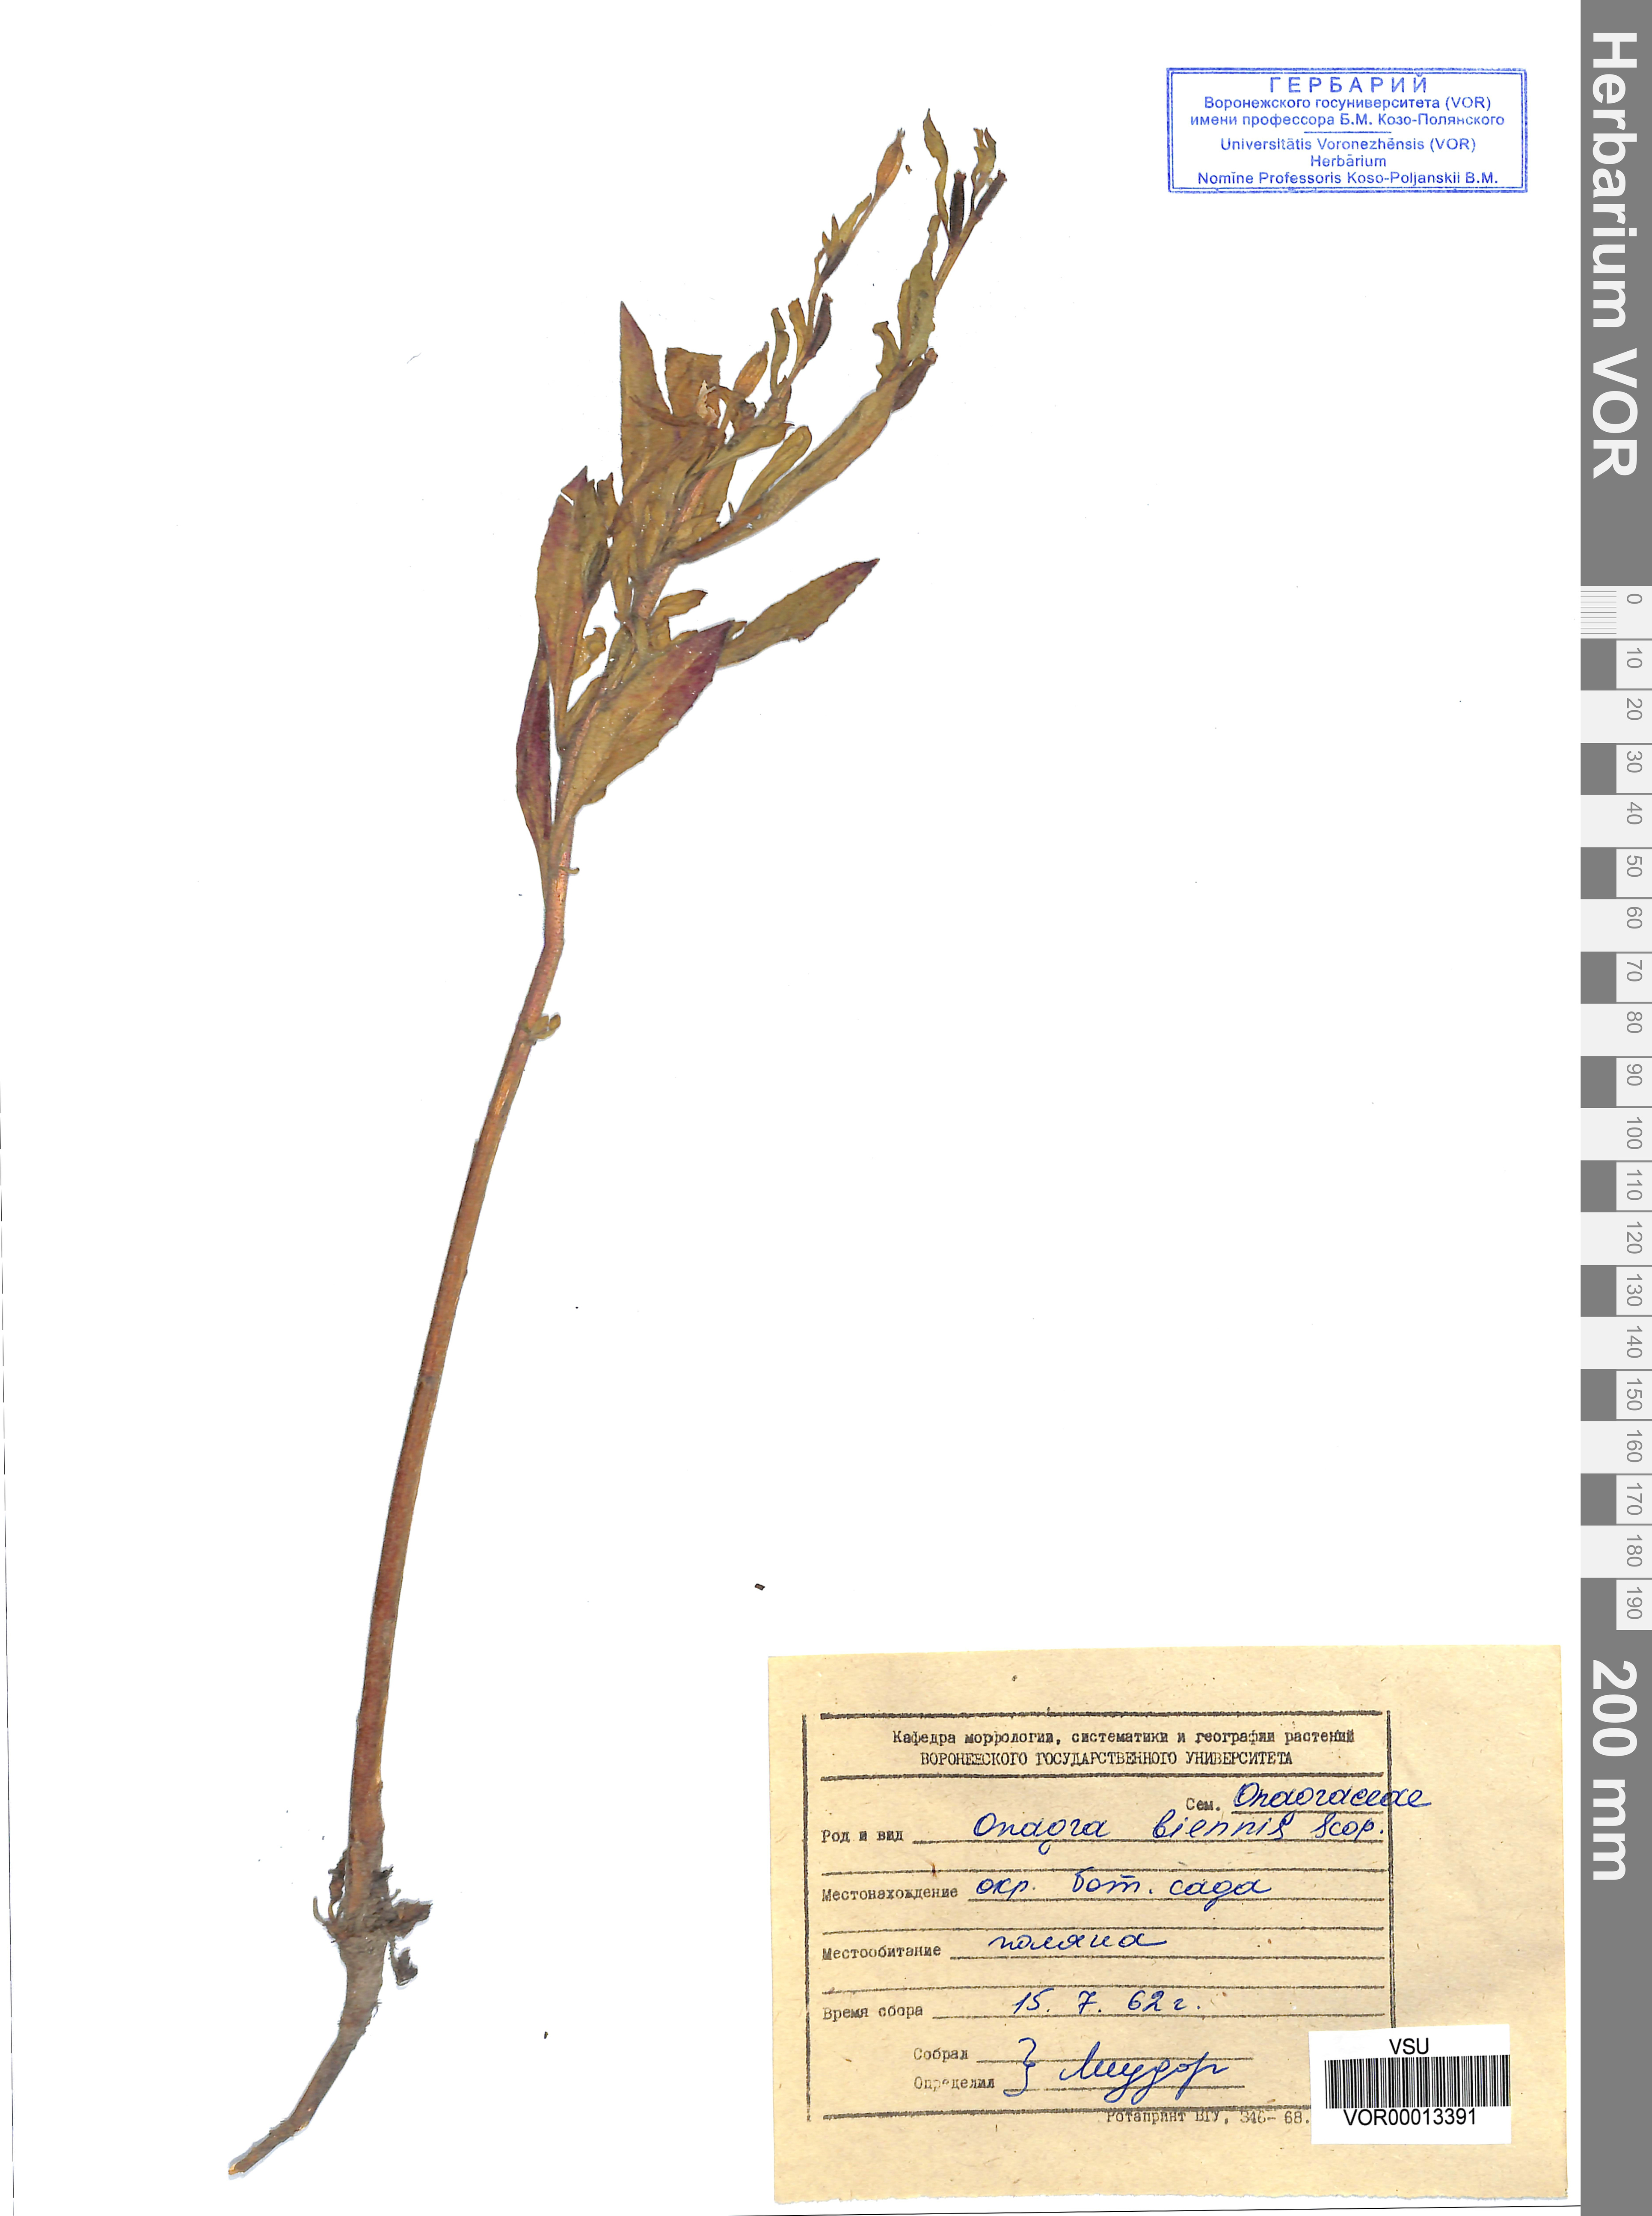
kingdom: Plantae
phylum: Tracheophyta
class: Magnoliopsida
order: Myrtales
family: Onagraceae
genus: Oenothera
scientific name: Oenothera biennis
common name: Common evening-primrose
